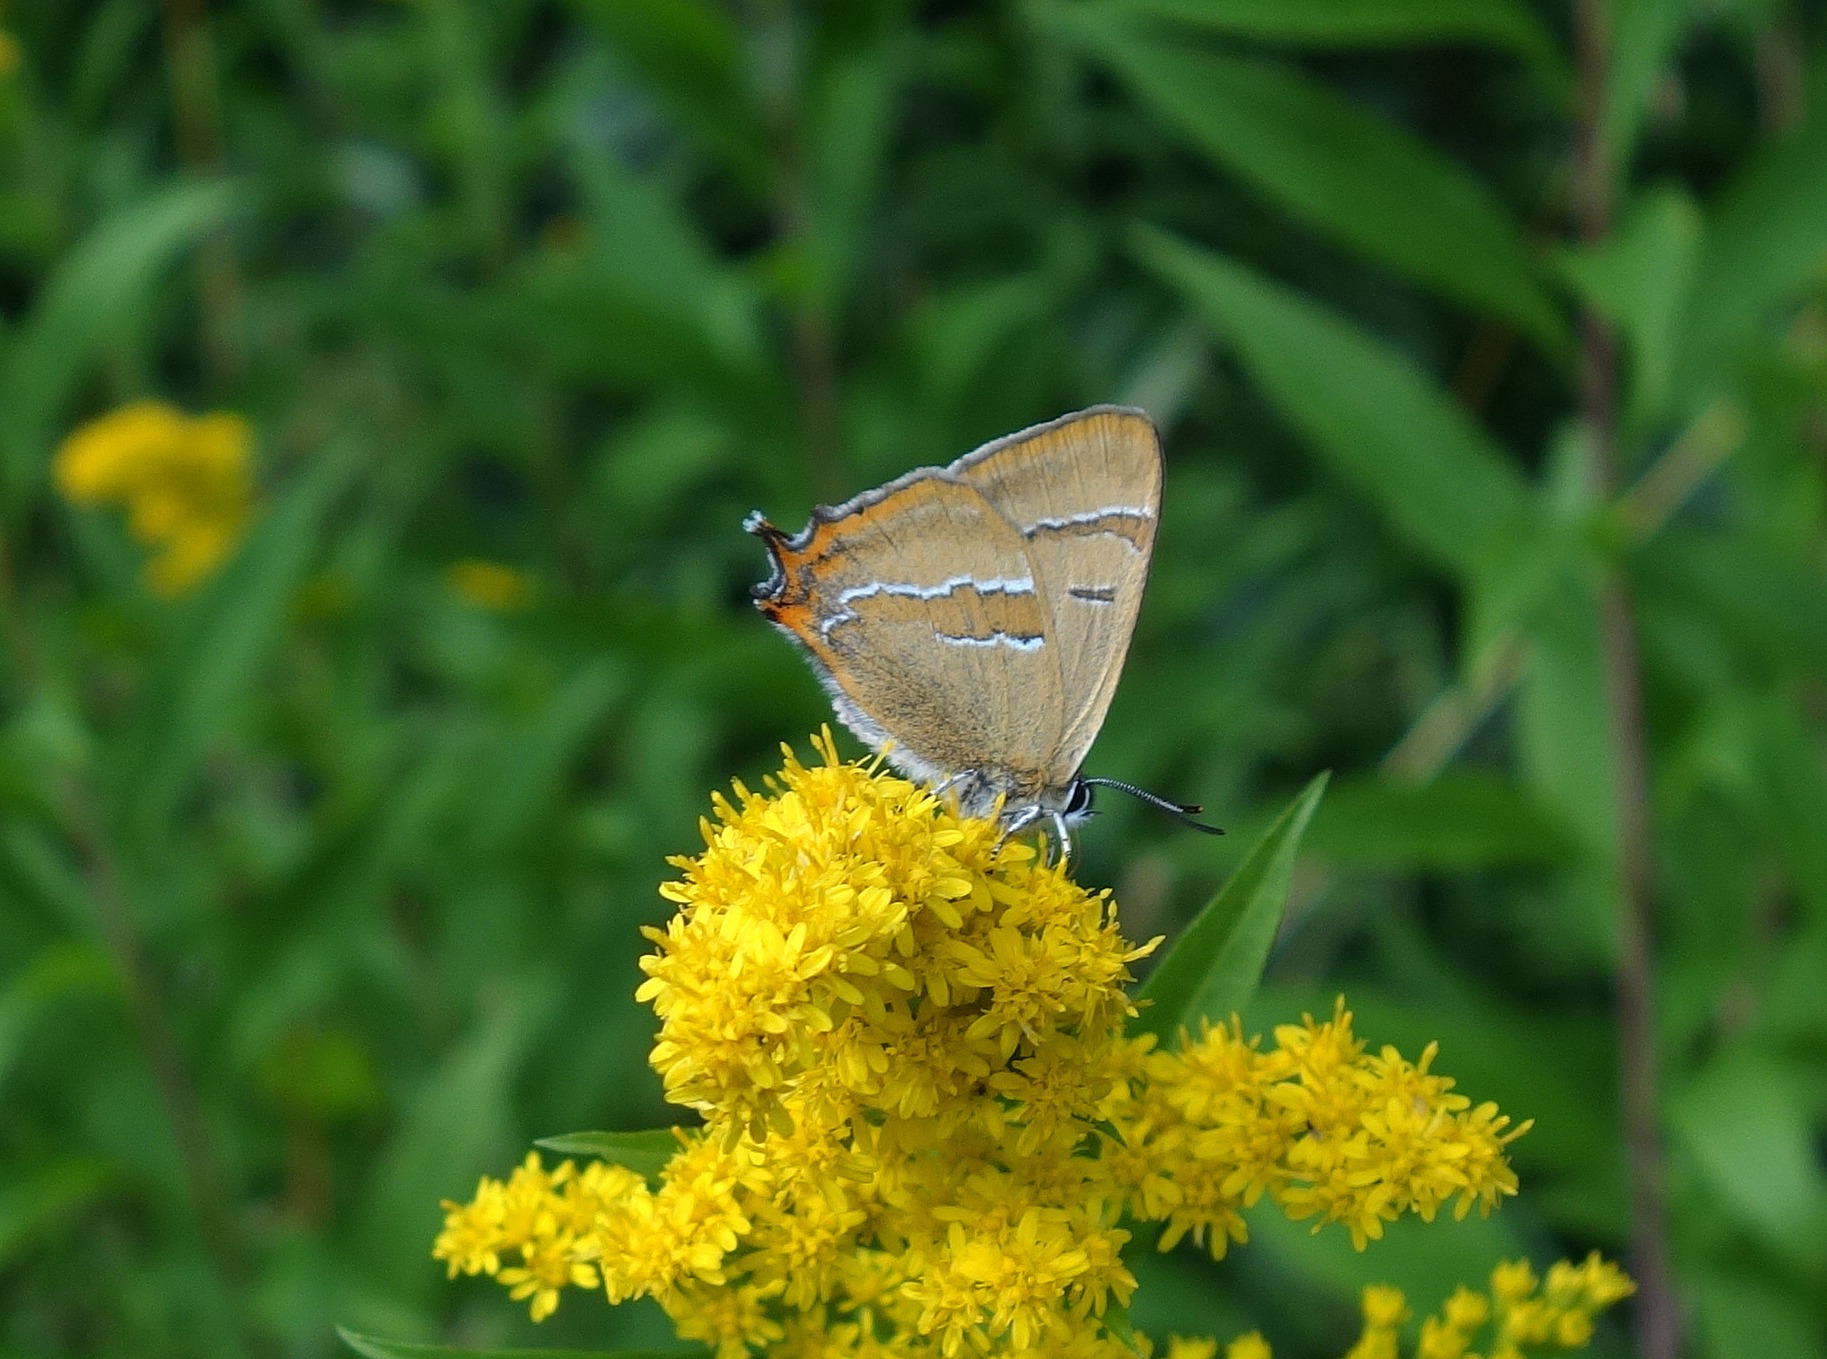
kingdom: Animalia
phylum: Arthropoda
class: Insecta
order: Lepidoptera
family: Lycaenidae
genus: Thecla
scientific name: Thecla betulae
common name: Guldhale
